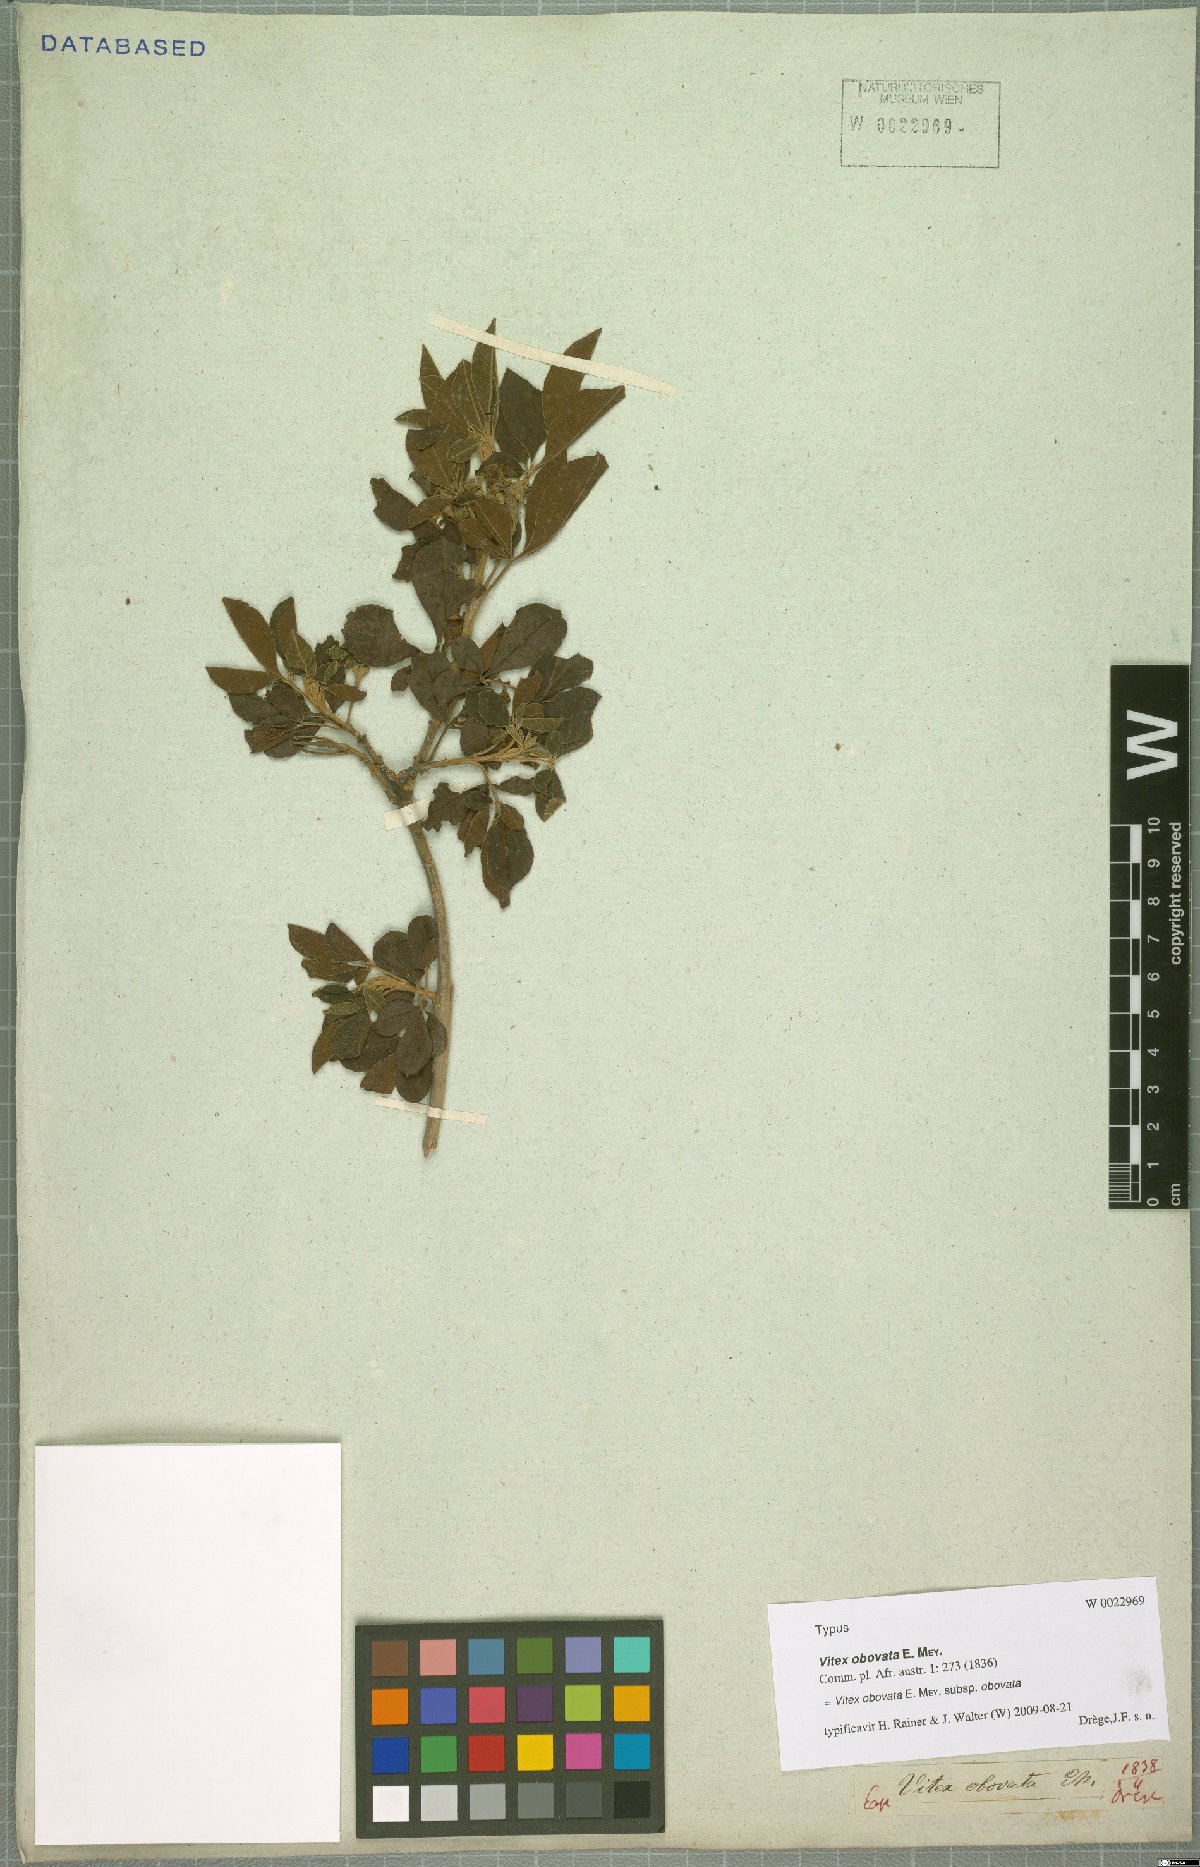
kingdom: Plantae
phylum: Tracheophyta
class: Magnoliopsida
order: Lamiales
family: Lamiaceae
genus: Vitex
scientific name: Vitex obovata
